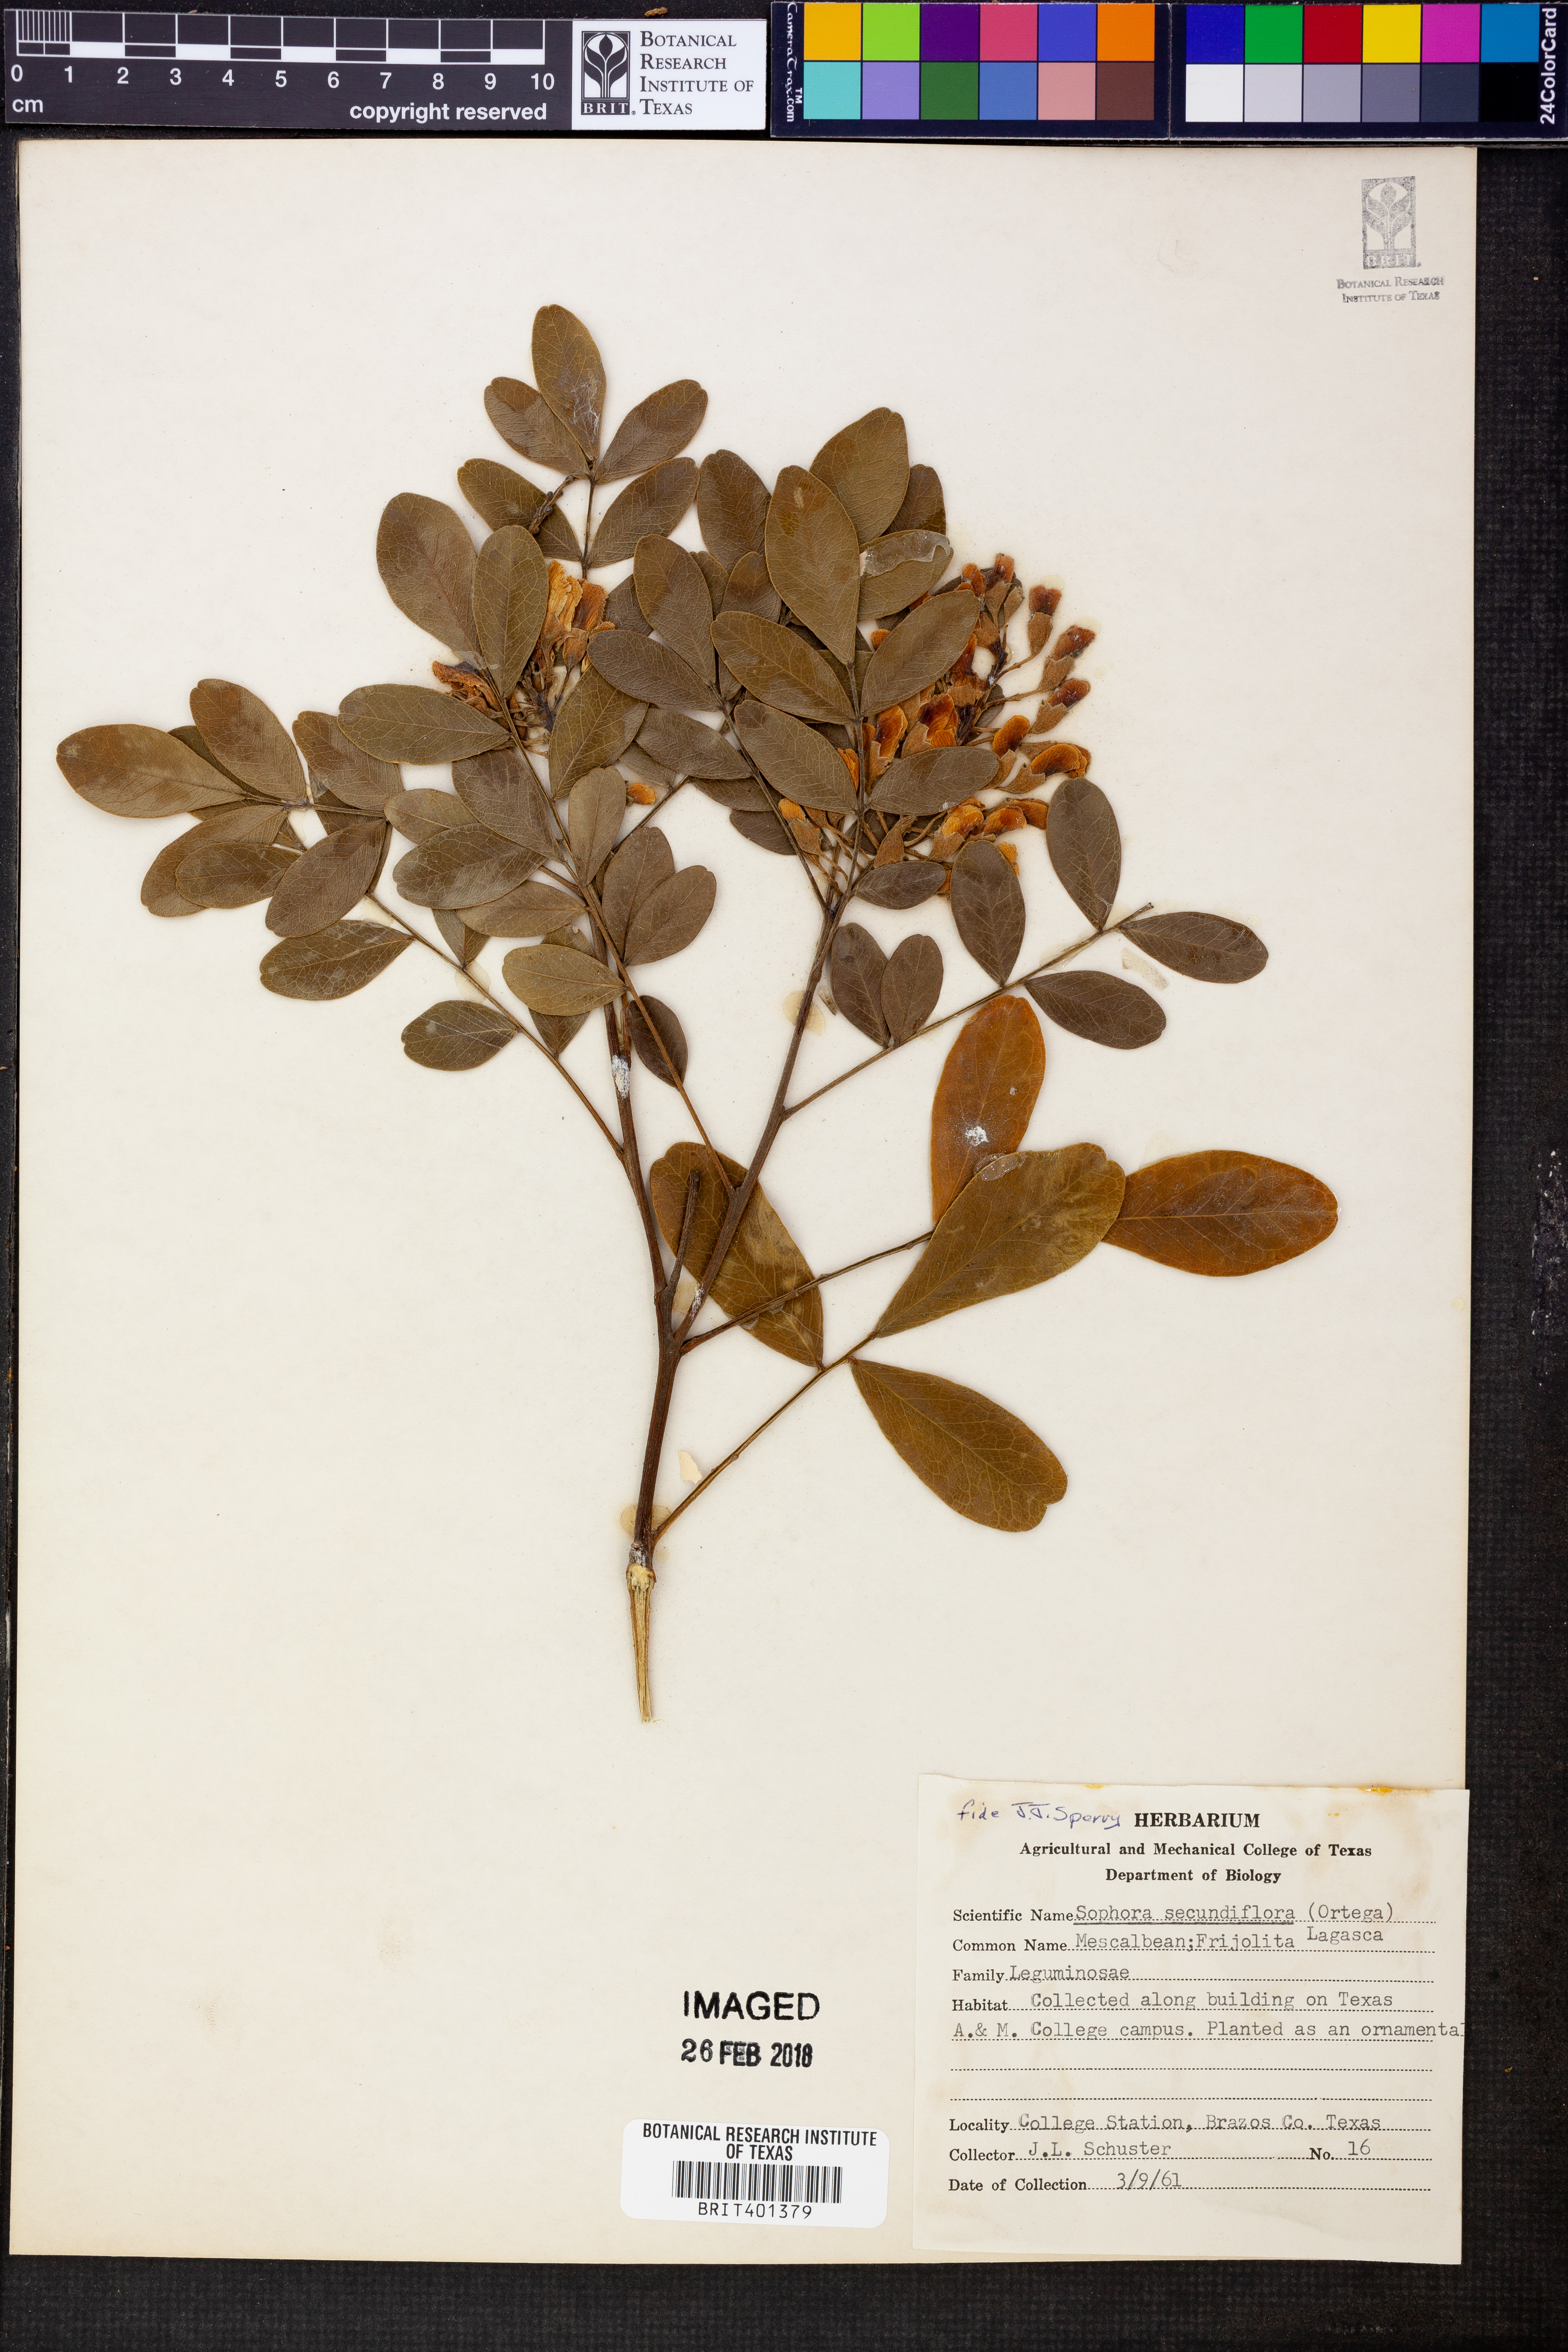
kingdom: Plantae
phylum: Tracheophyta
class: Magnoliopsida
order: Fabales
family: Fabaceae
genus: Dermatophyllum
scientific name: Dermatophyllum secundiflorum
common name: Texas-mountain-laurel
